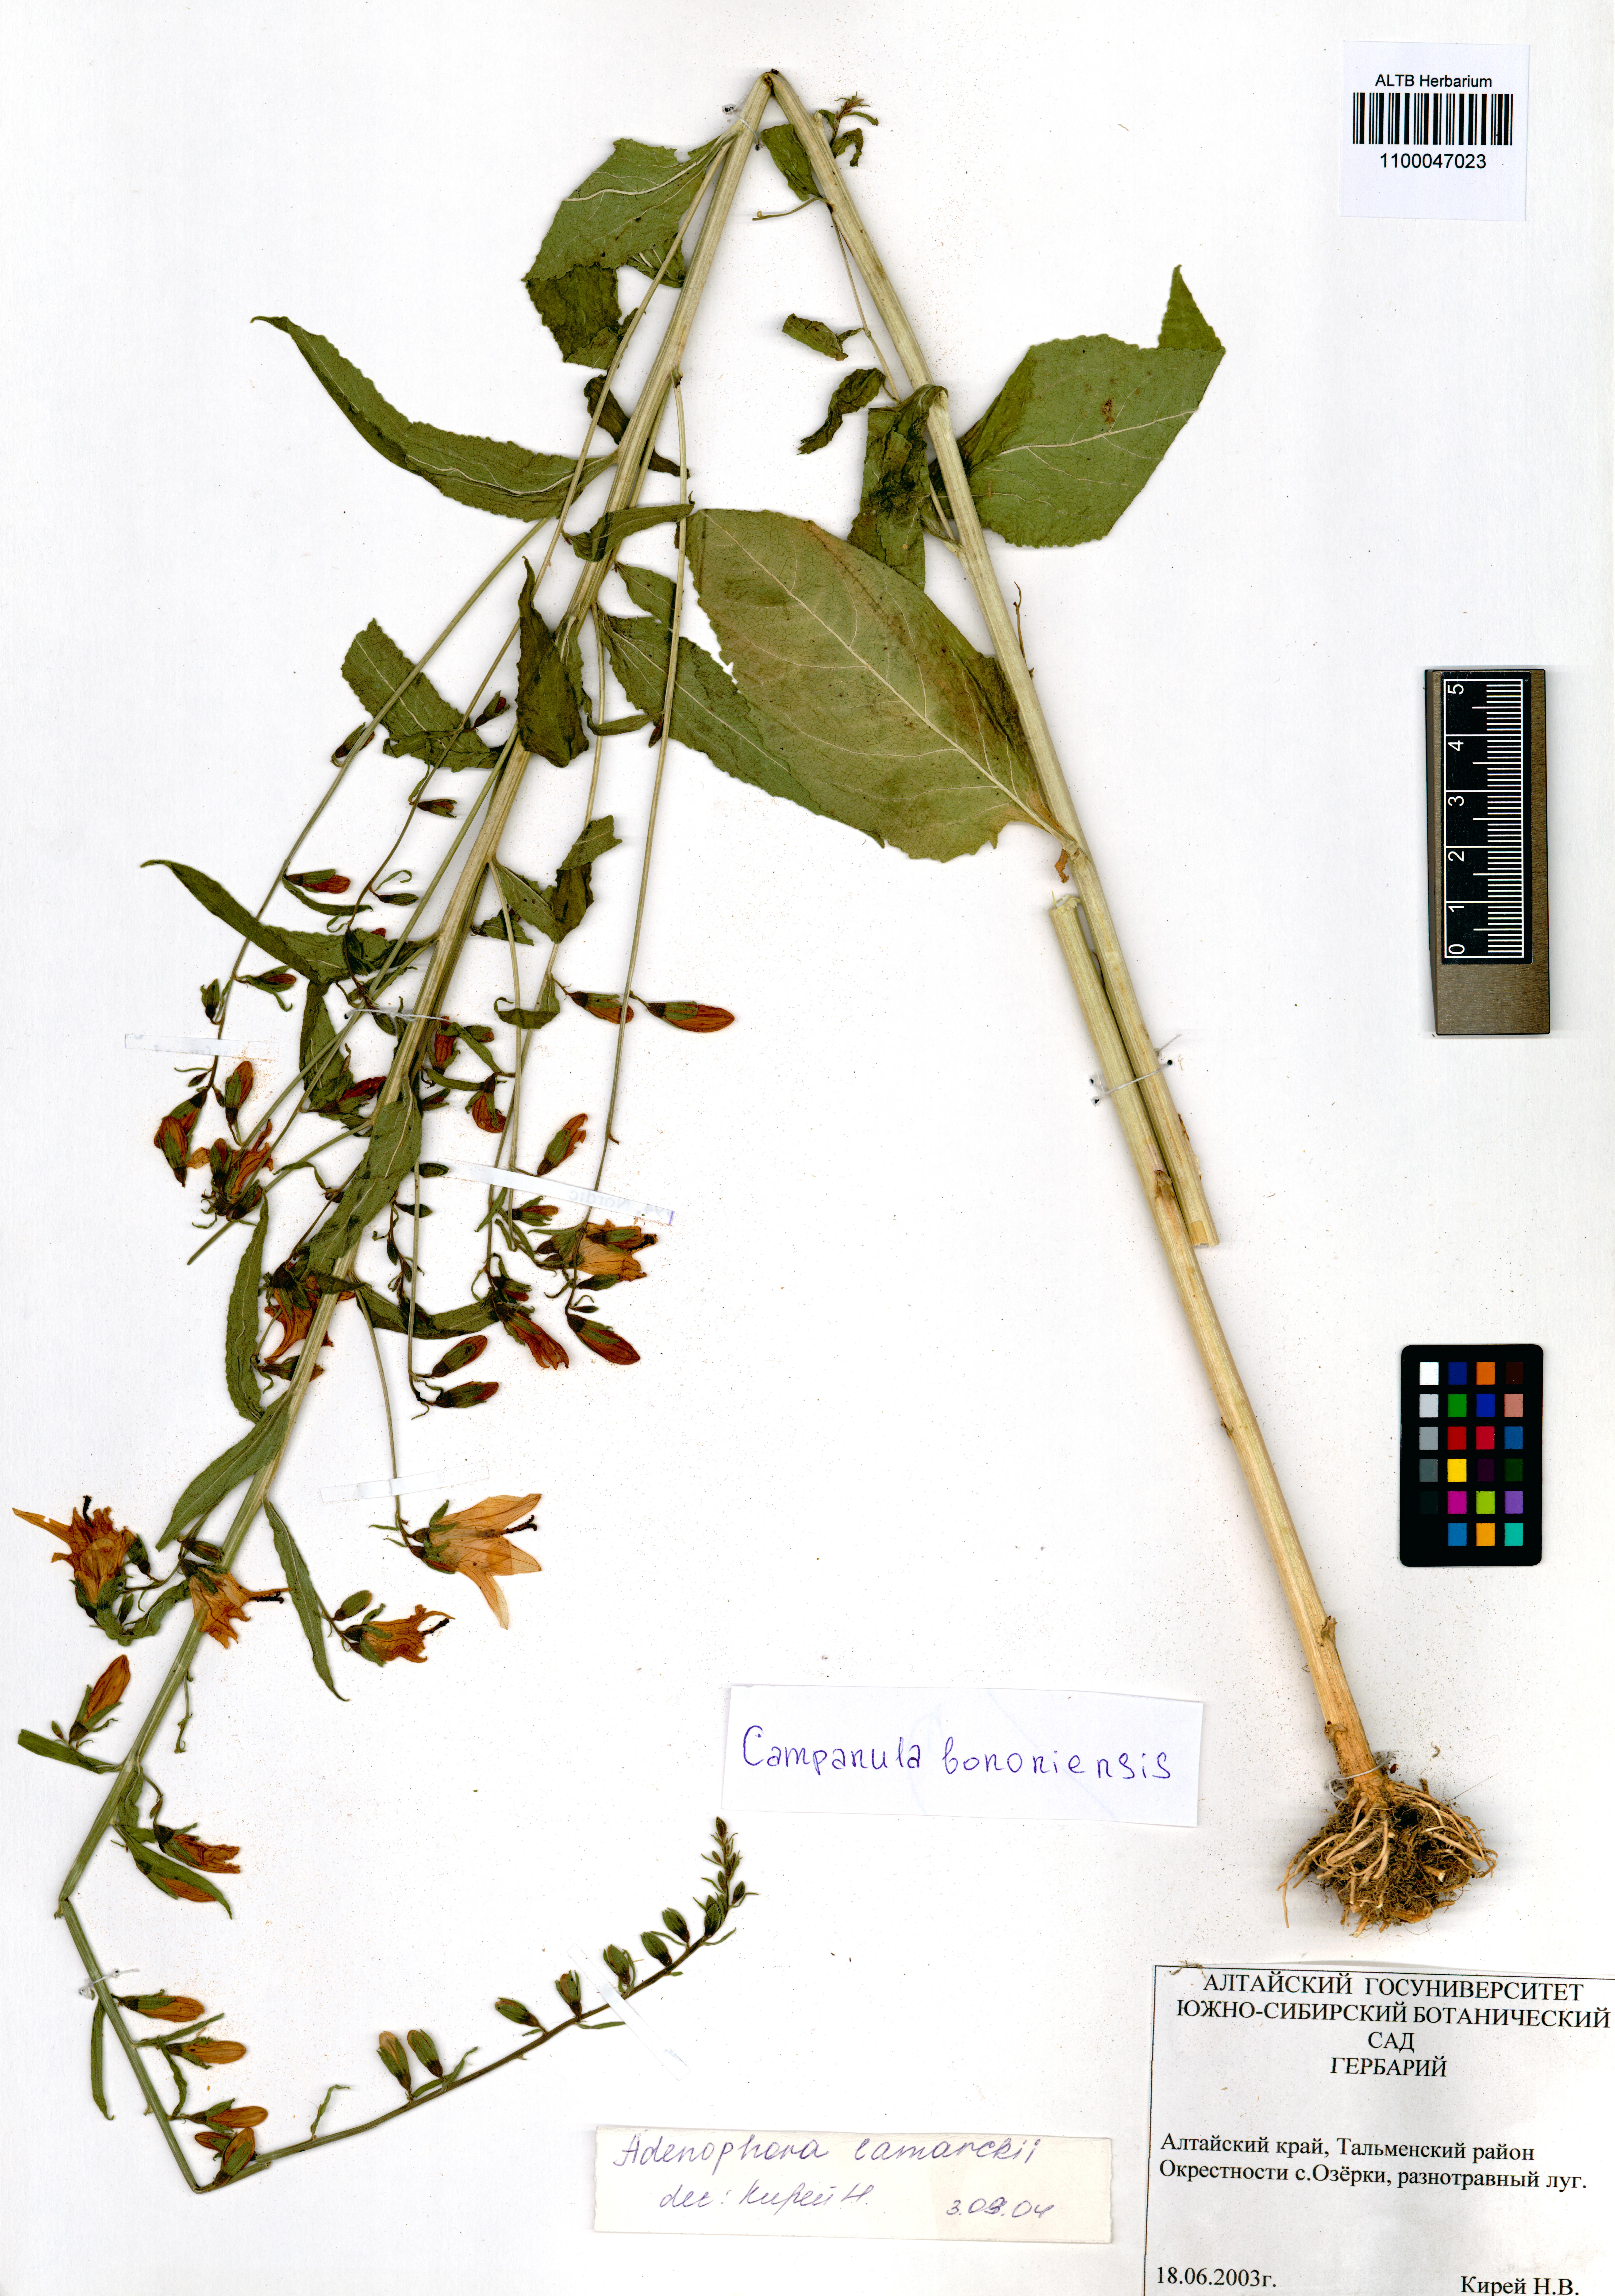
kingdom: Plantae
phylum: Tracheophyta
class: Magnoliopsida
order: Asterales
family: Campanulaceae
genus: Campanula
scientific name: Campanula bononiensis
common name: Pale bellflower
